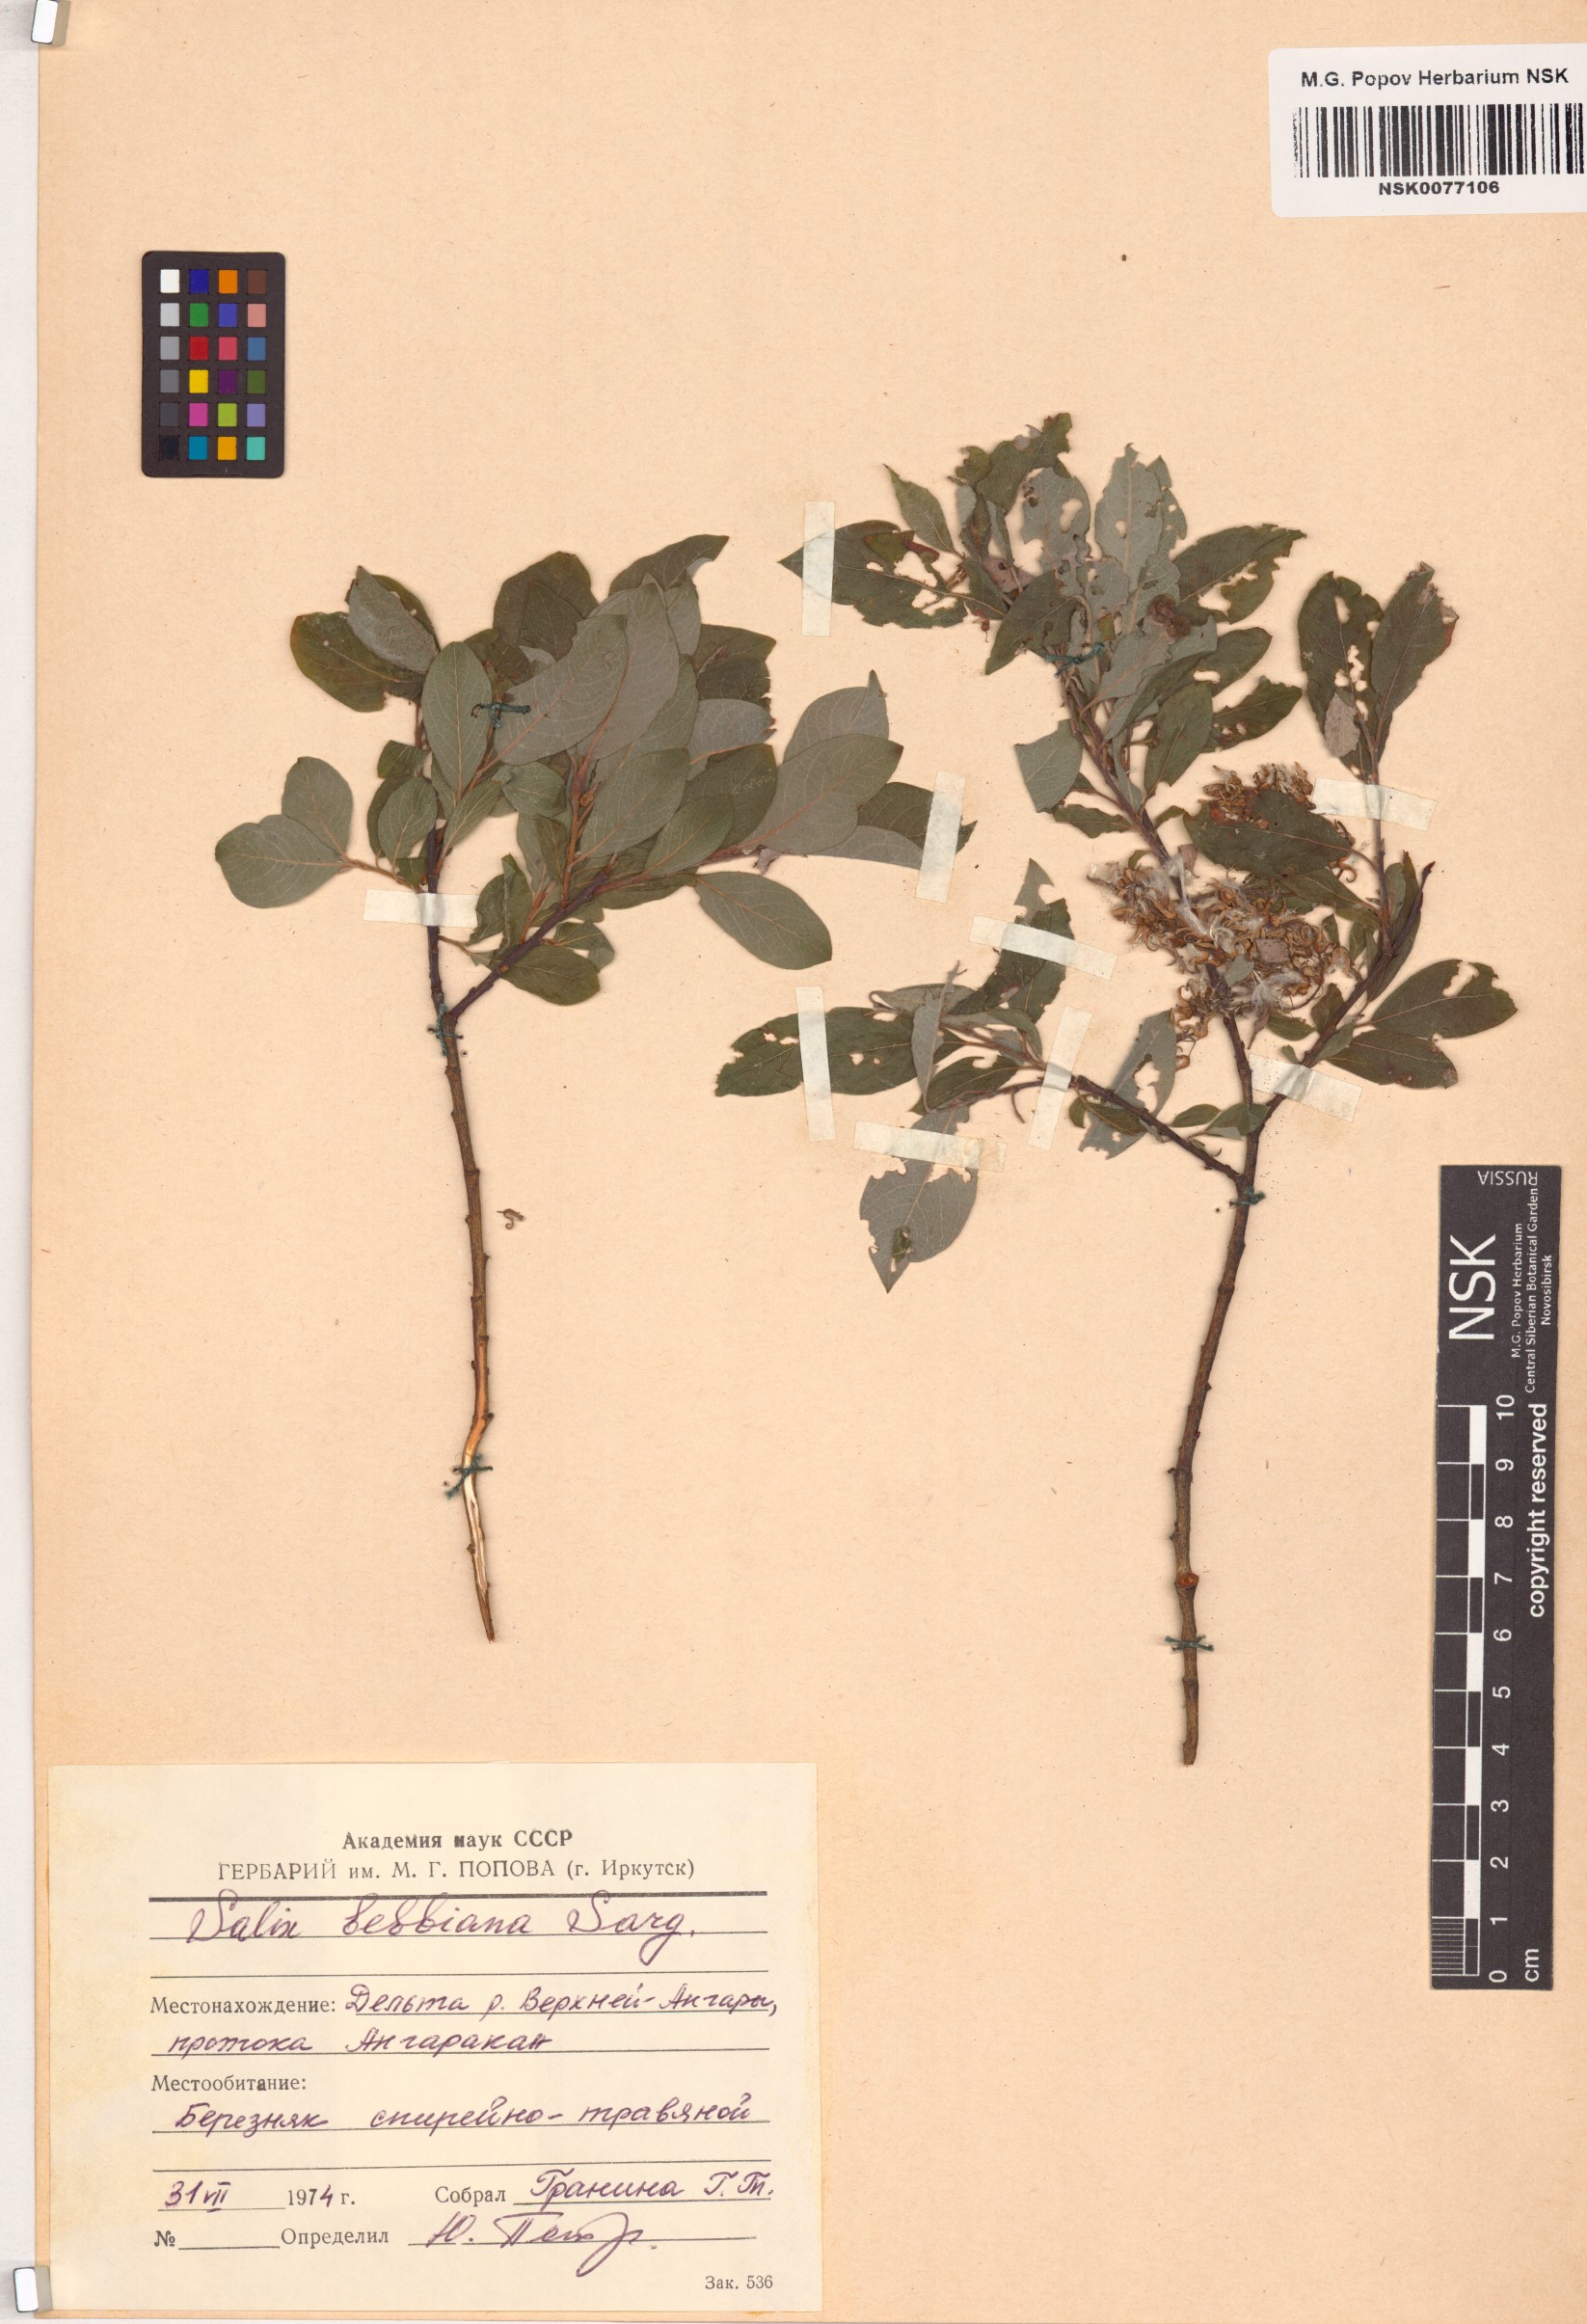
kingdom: Plantae
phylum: Tracheophyta
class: Magnoliopsida
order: Malpighiales
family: Salicaceae
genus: Salix
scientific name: Salix bebbiana
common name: Bebb's willow
